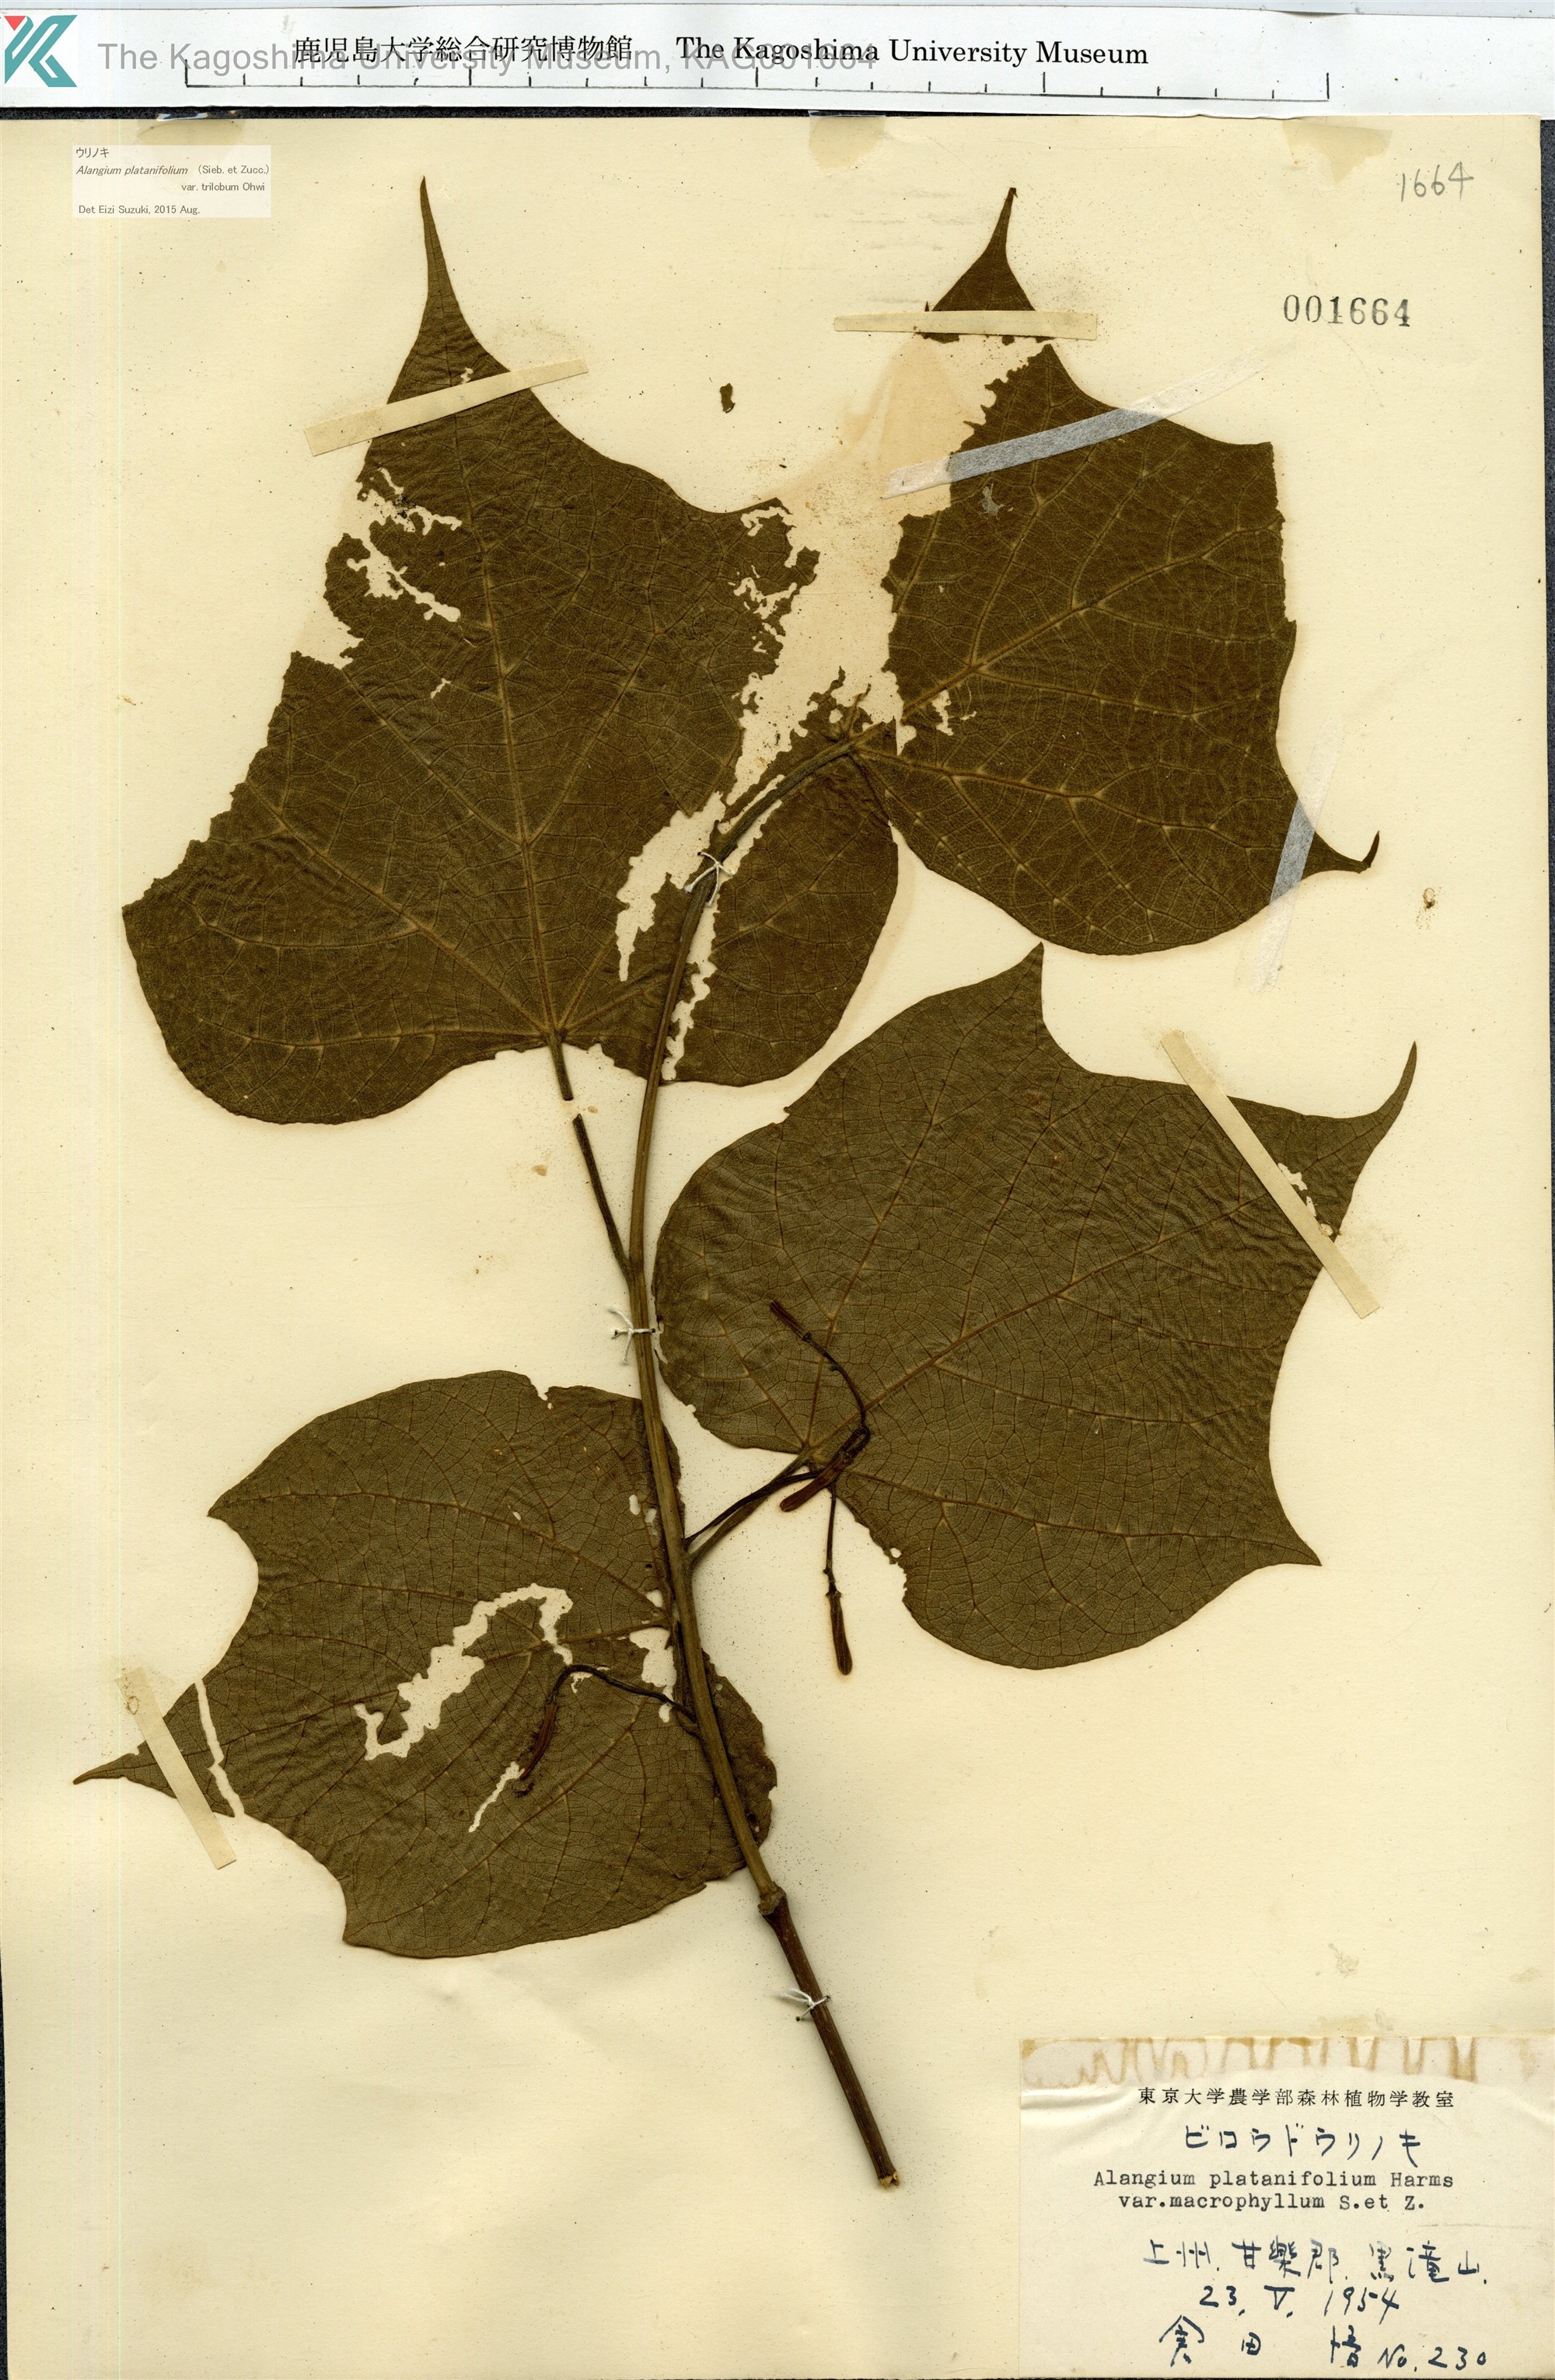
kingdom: Plantae
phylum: Tracheophyta
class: Magnoliopsida
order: Cornales
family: Cornaceae
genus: Alangium
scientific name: Alangium platanifolium
